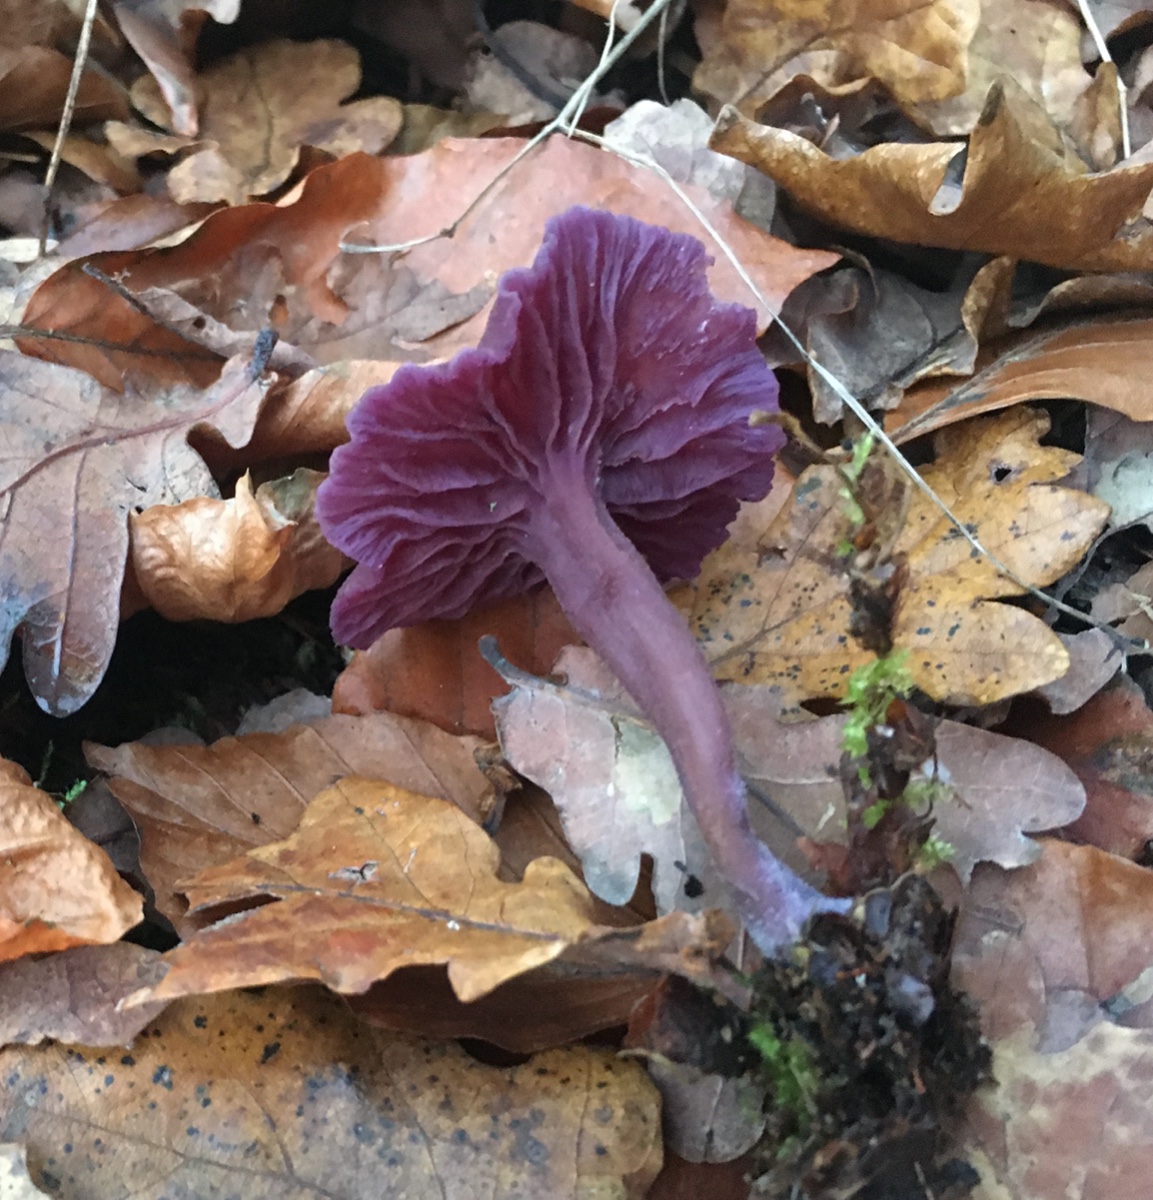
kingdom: Fungi
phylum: Basidiomycota
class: Agaricomycetes
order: Agaricales
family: Hydnangiaceae
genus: Laccaria
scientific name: Laccaria amethystina
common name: violet ametysthat
